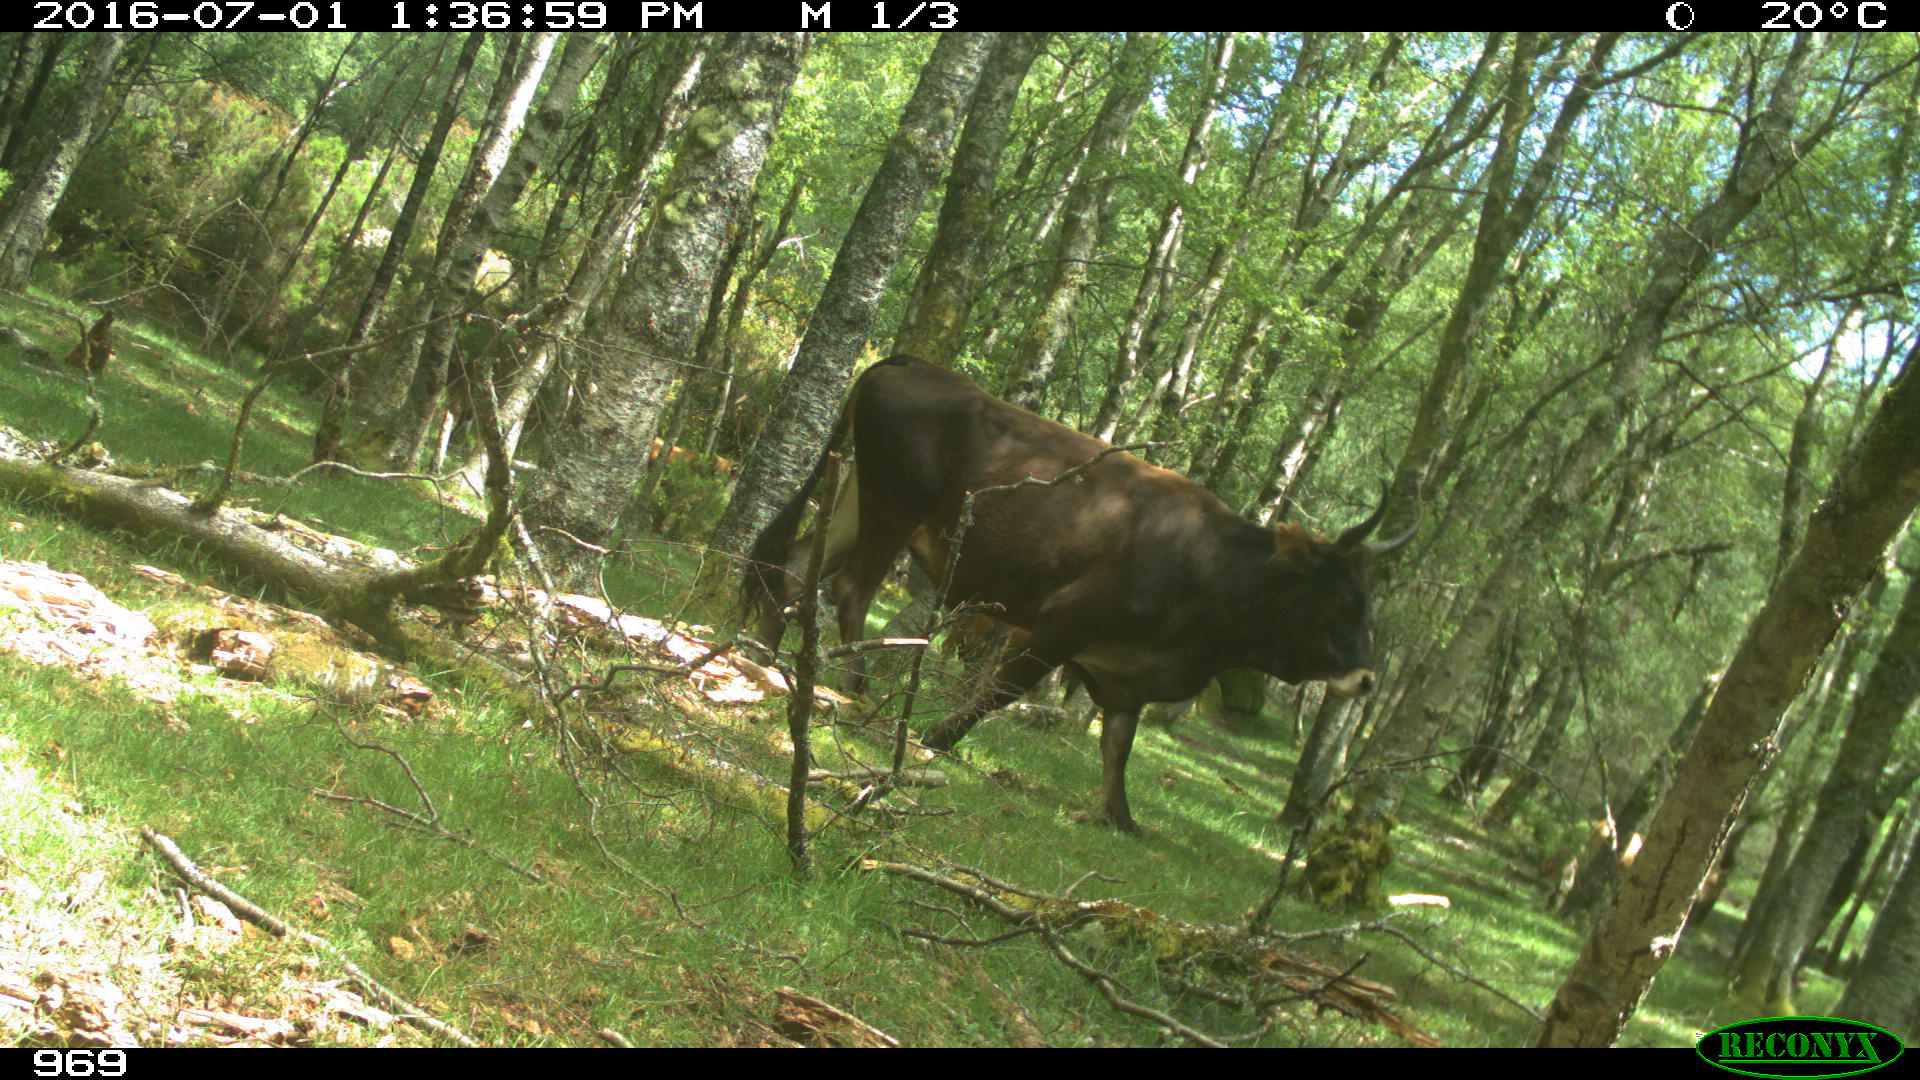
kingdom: Animalia
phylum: Chordata
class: Mammalia
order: Artiodactyla
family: Bovidae
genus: Bos
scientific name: Bos taurus
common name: Domesticated cattle
